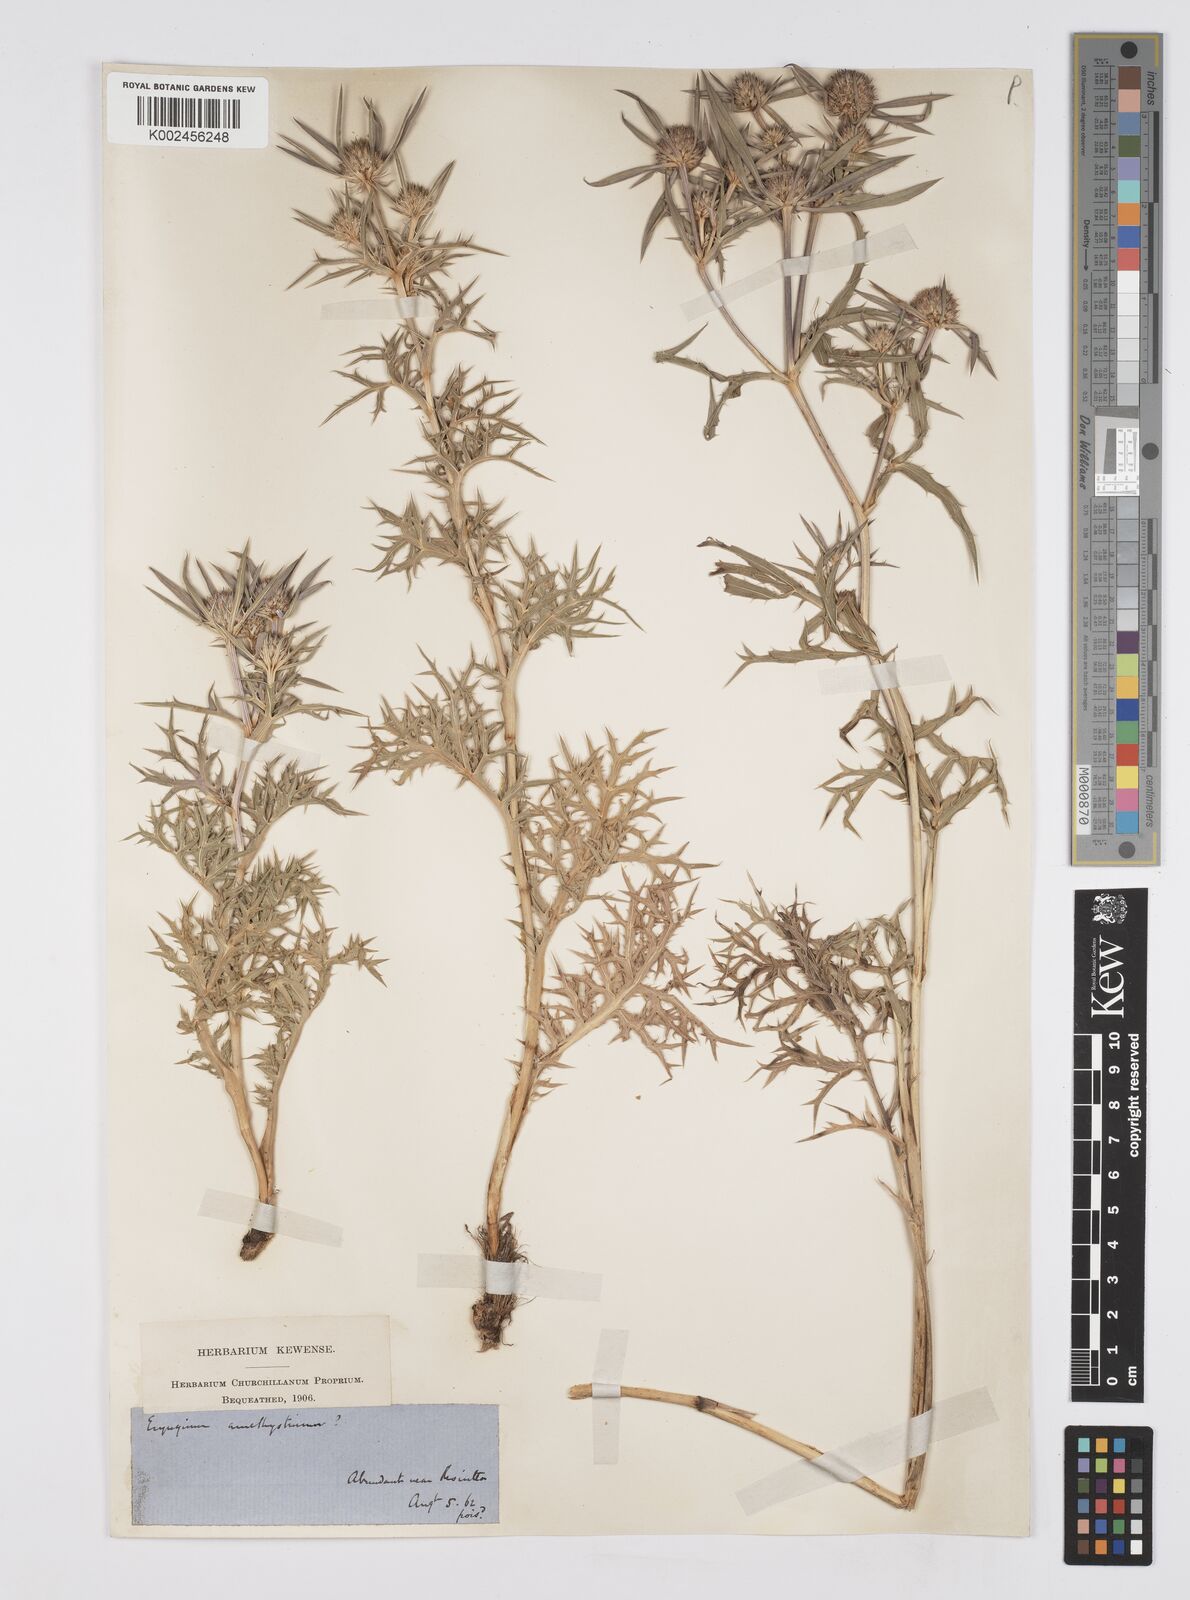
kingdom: Plantae
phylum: Tracheophyta
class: Magnoliopsida
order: Apiales
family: Apiaceae
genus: Eryngium
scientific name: Eryngium amethystinum
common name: Amethyst eryngo
